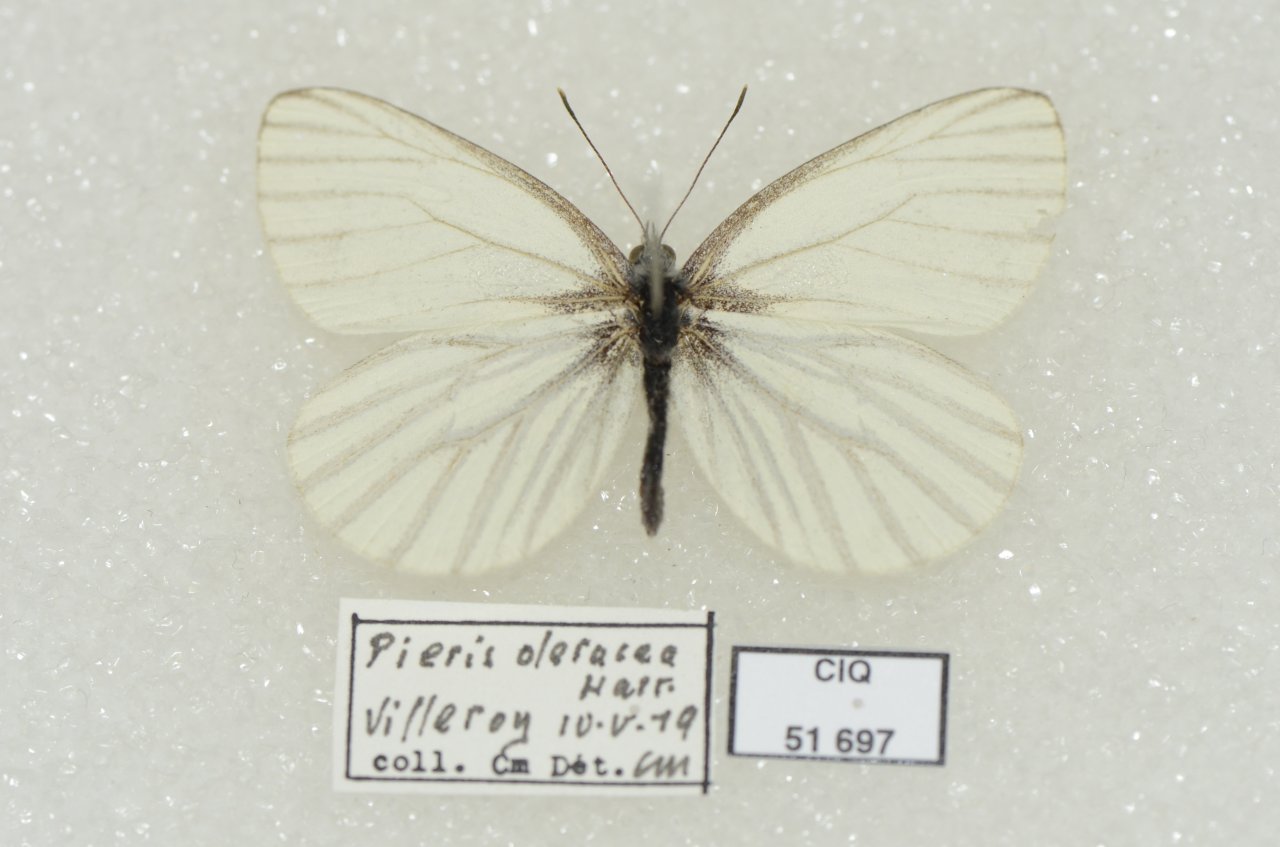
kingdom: Animalia
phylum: Arthropoda
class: Insecta
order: Lepidoptera
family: Pieridae
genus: Pieris
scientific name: Pieris oleracea
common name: Mustard White
